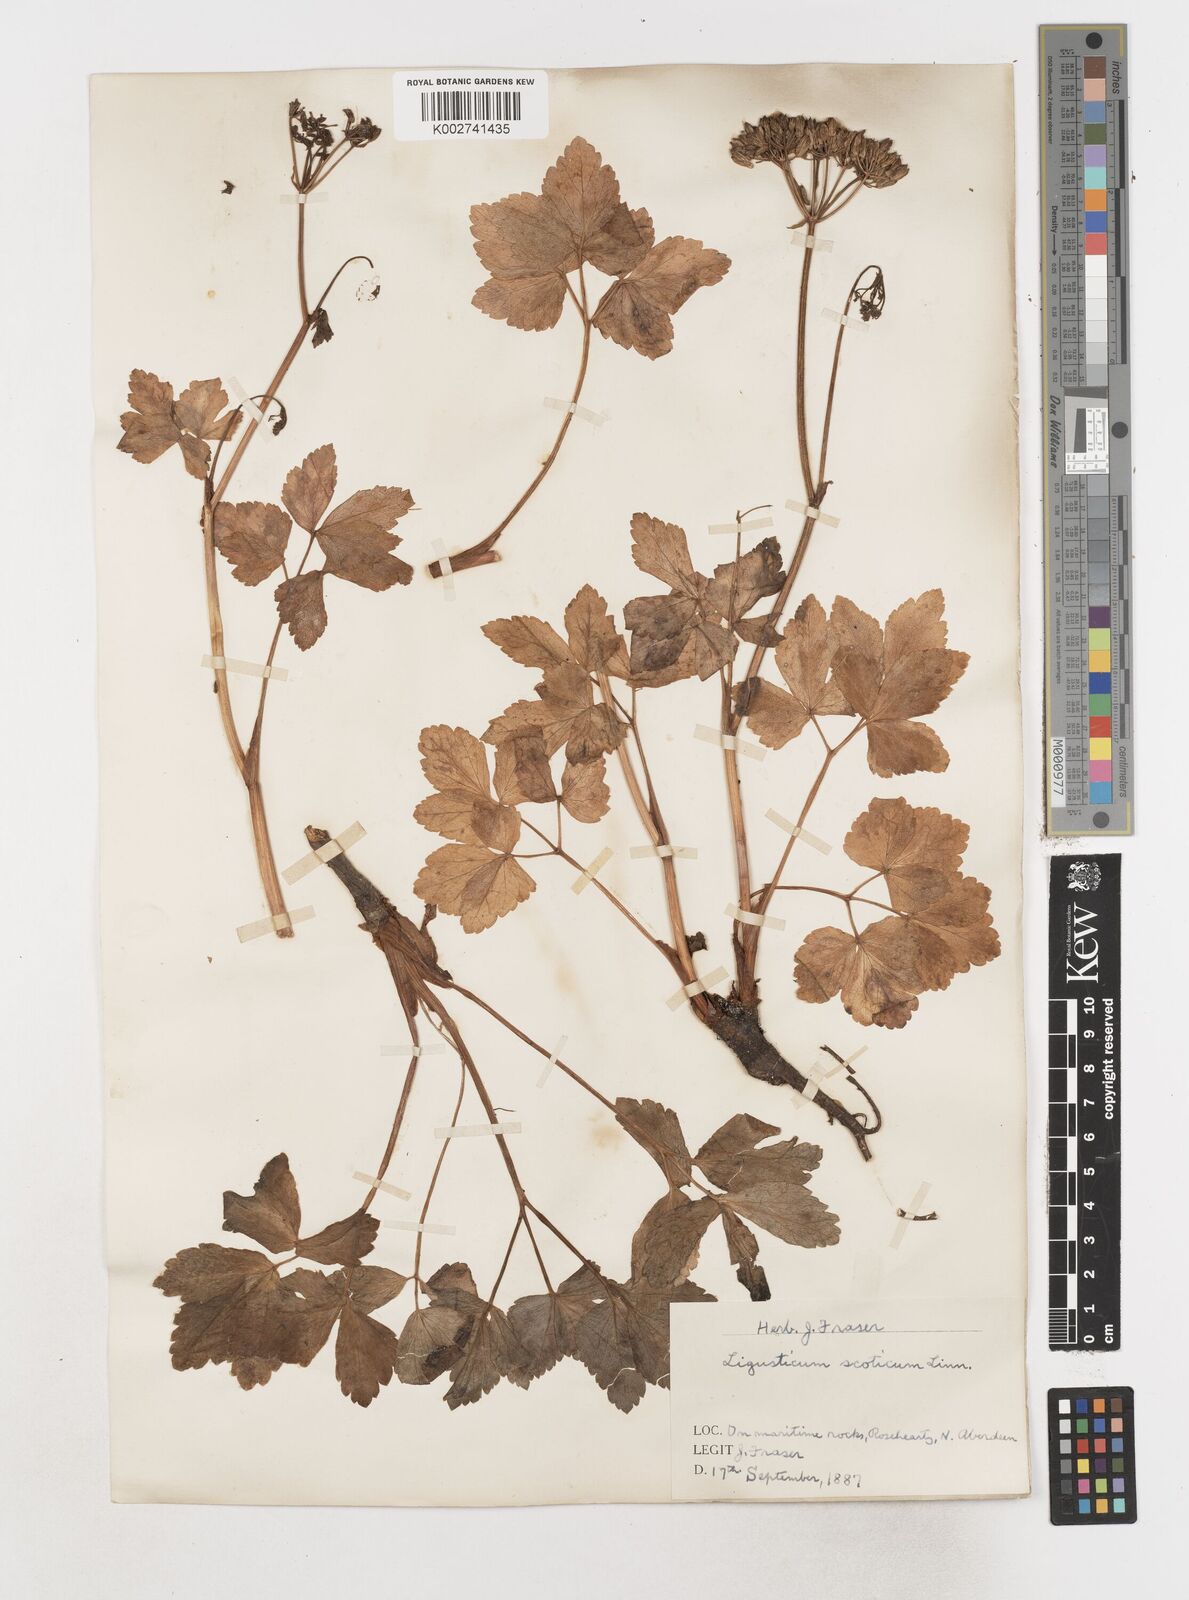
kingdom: Plantae
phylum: Tracheophyta
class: Magnoliopsida
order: Apiales
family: Apiaceae
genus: Ligusticum
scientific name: Ligusticum scothicum
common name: Beach lovage
